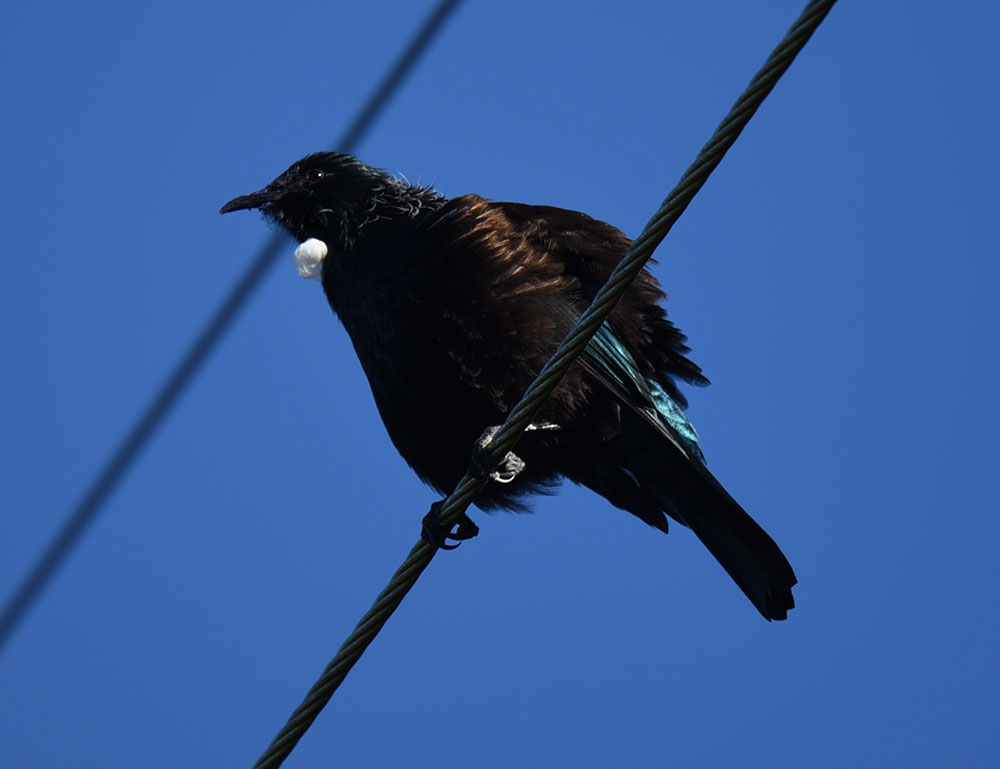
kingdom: Animalia
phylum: Chordata
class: Aves
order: Passeriformes
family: Meliphagidae
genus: Prosthemadera
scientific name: Prosthemadera novaeseelandiae
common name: Tui
